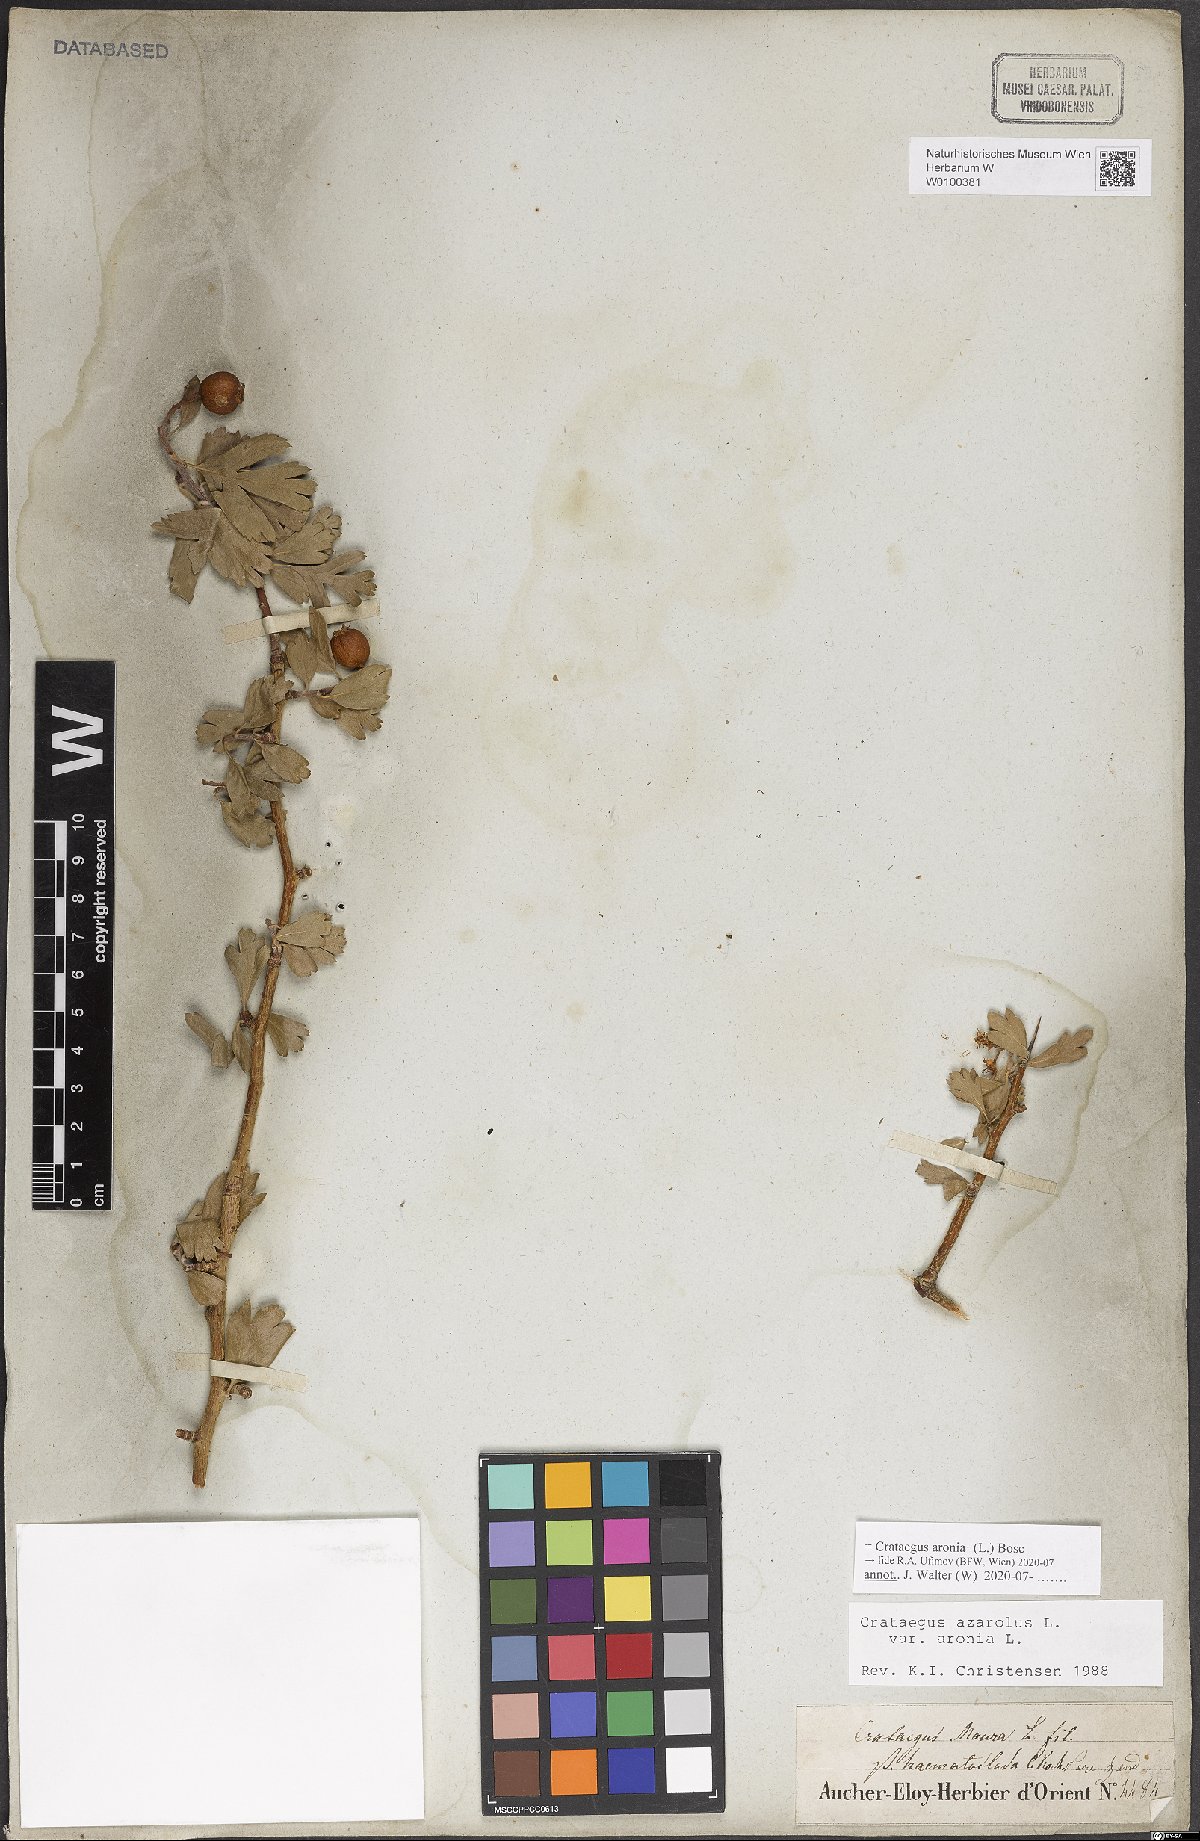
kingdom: Plantae
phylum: Tracheophyta
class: Magnoliopsida
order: Rosales
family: Rosaceae
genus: Crataegus
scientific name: Crataegus azarolus
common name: Azarole
